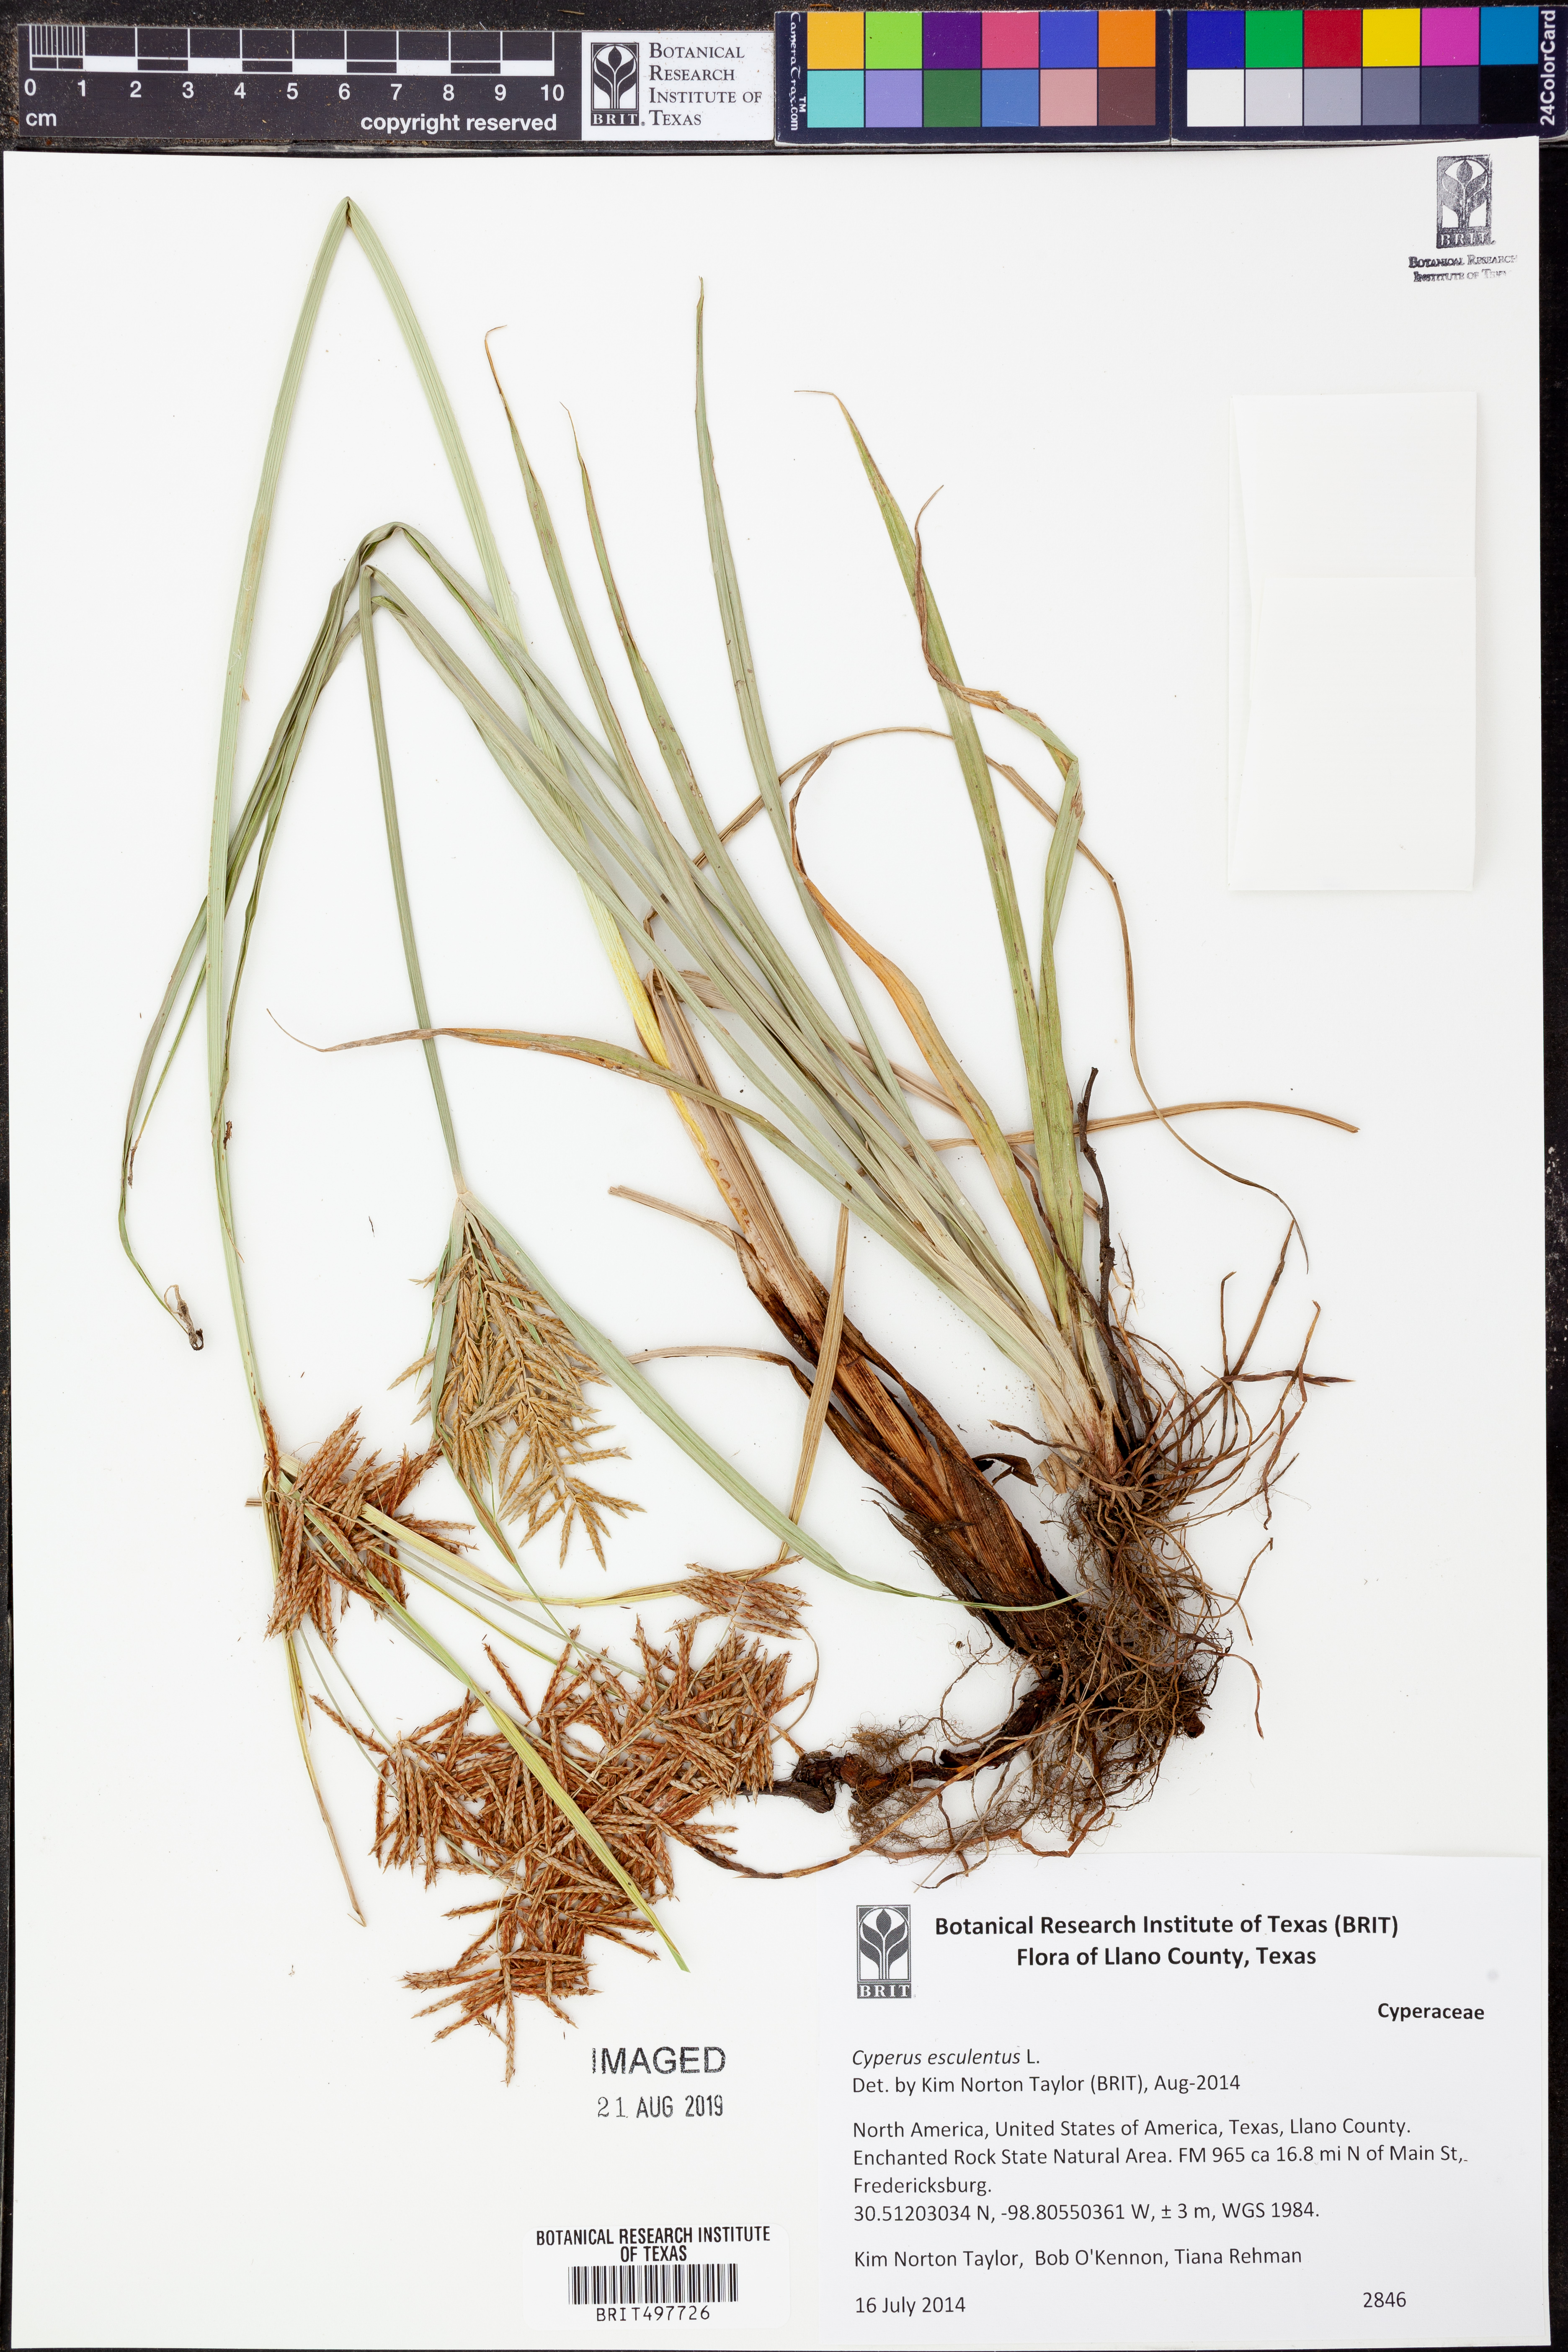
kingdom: Plantae
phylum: Tracheophyta
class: Liliopsida
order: Poales
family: Cyperaceae
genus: Cyperus
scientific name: Cyperus esculentus
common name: Yellow nutsedge
